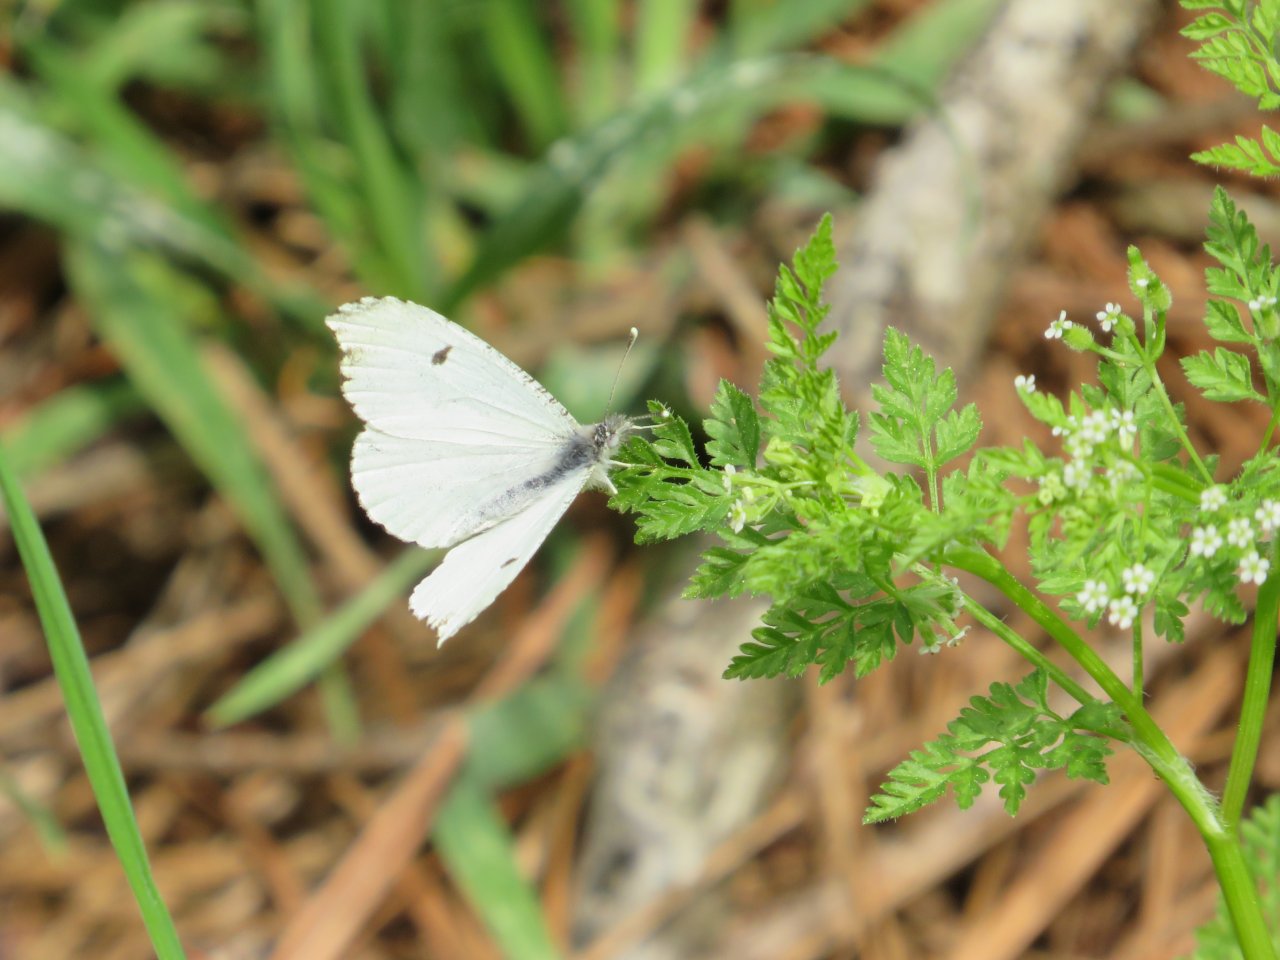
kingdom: Animalia
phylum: Arthropoda
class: Insecta
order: Lepidoptera
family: Pieridae
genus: Anthocharis
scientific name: Anthocharis midea
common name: Falcate Orangetip
